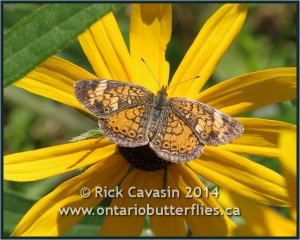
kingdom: Animalia
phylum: Arthropoda
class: Insecta
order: Lepidoptera
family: Nymphalidae
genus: Phyciodes
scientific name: Phyciodes tharos
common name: Northern Crescent
